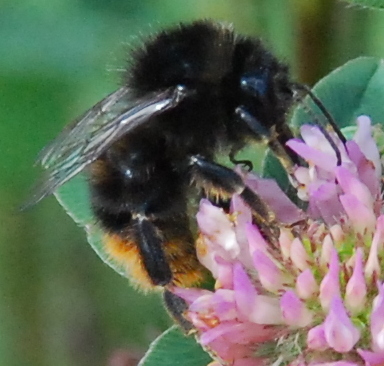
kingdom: Animalia
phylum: Arthropoda
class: Insecta
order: Hymenoptera
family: Apidae
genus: Bombus
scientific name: Bombus ruderarius
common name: Red-shanked carder-bee
